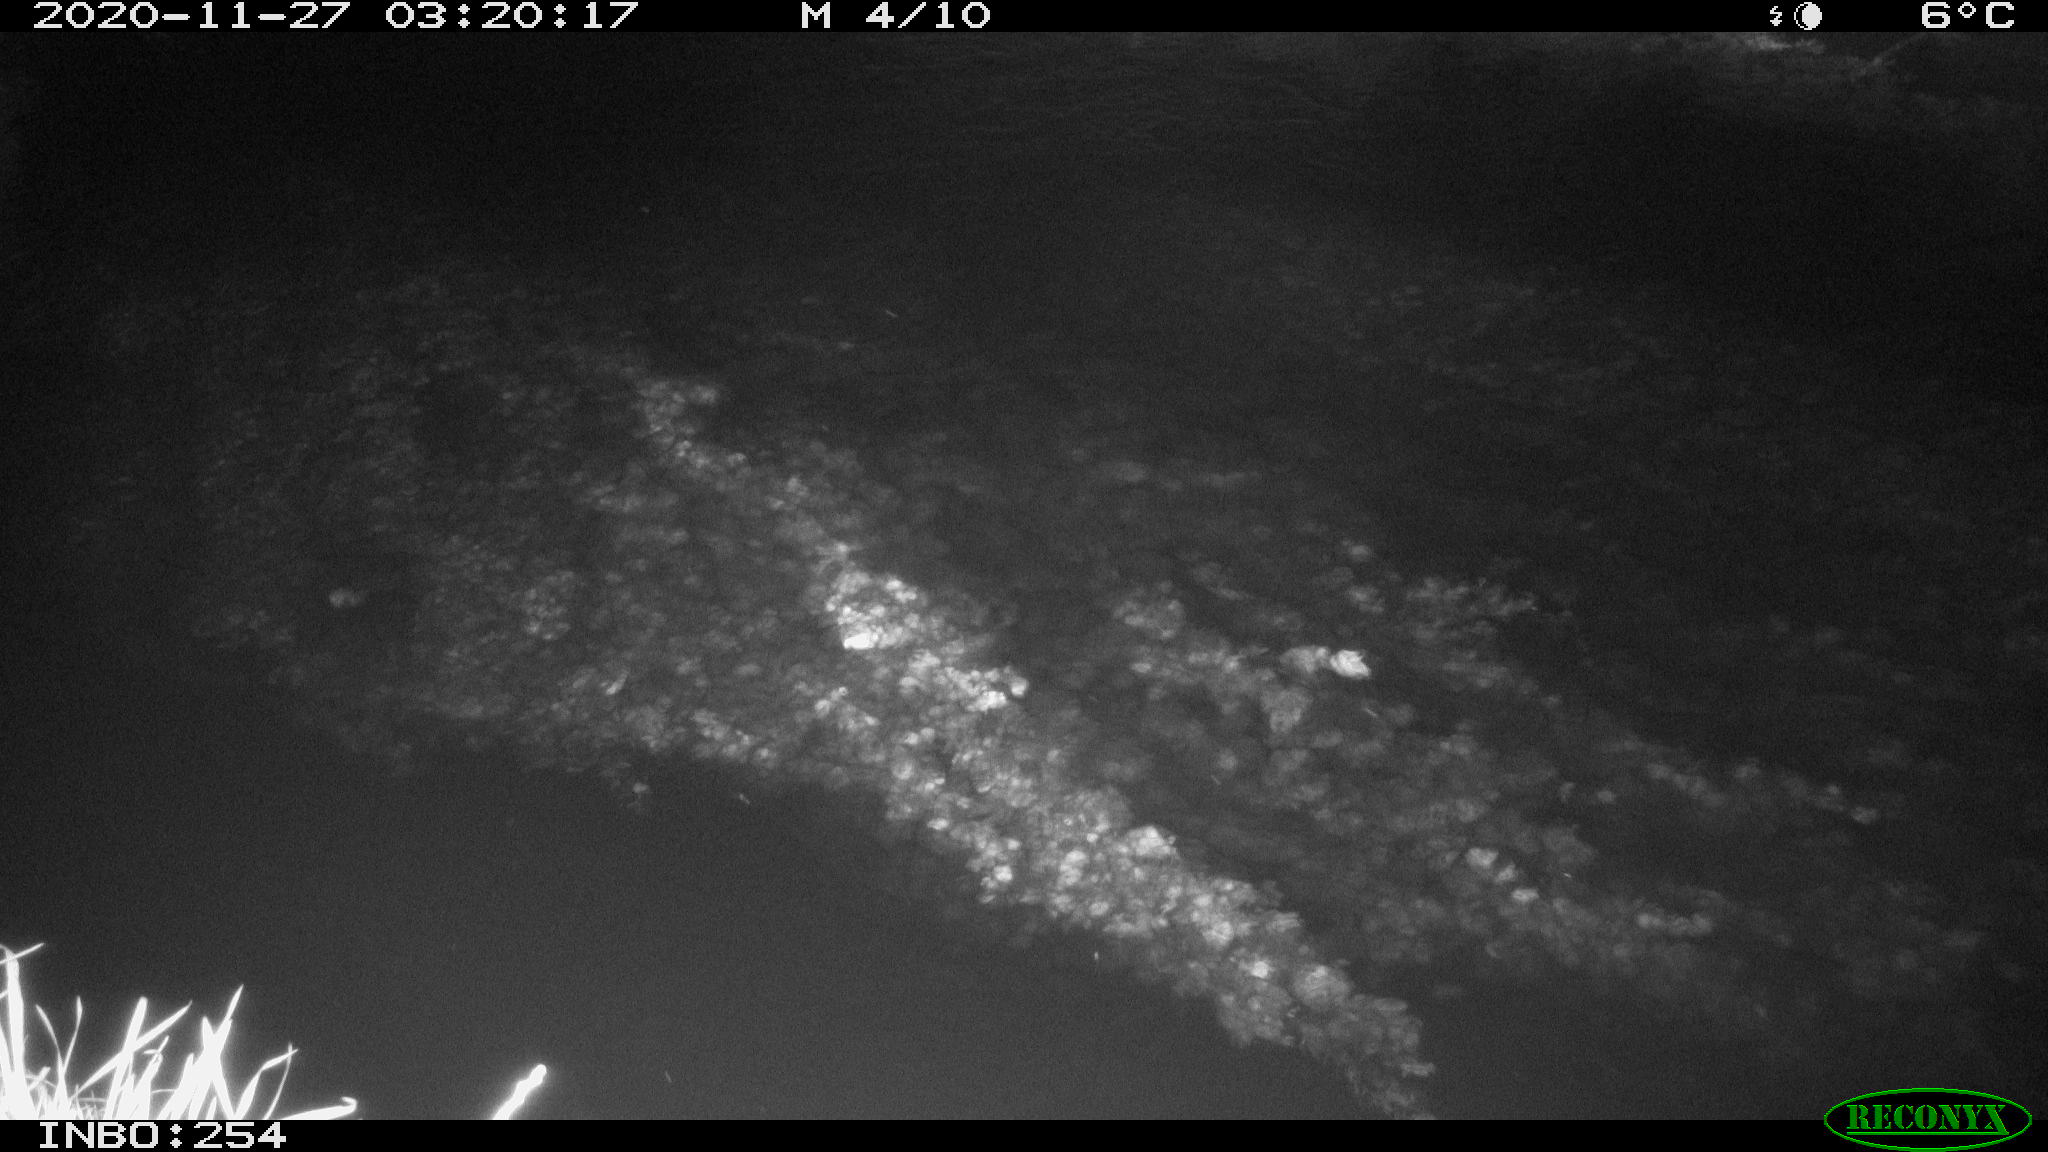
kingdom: Animalia
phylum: Chordata
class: Aves
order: Anseriformes
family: Anatidae
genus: Anas
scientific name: Anas platyrhynchos
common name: Mallard
